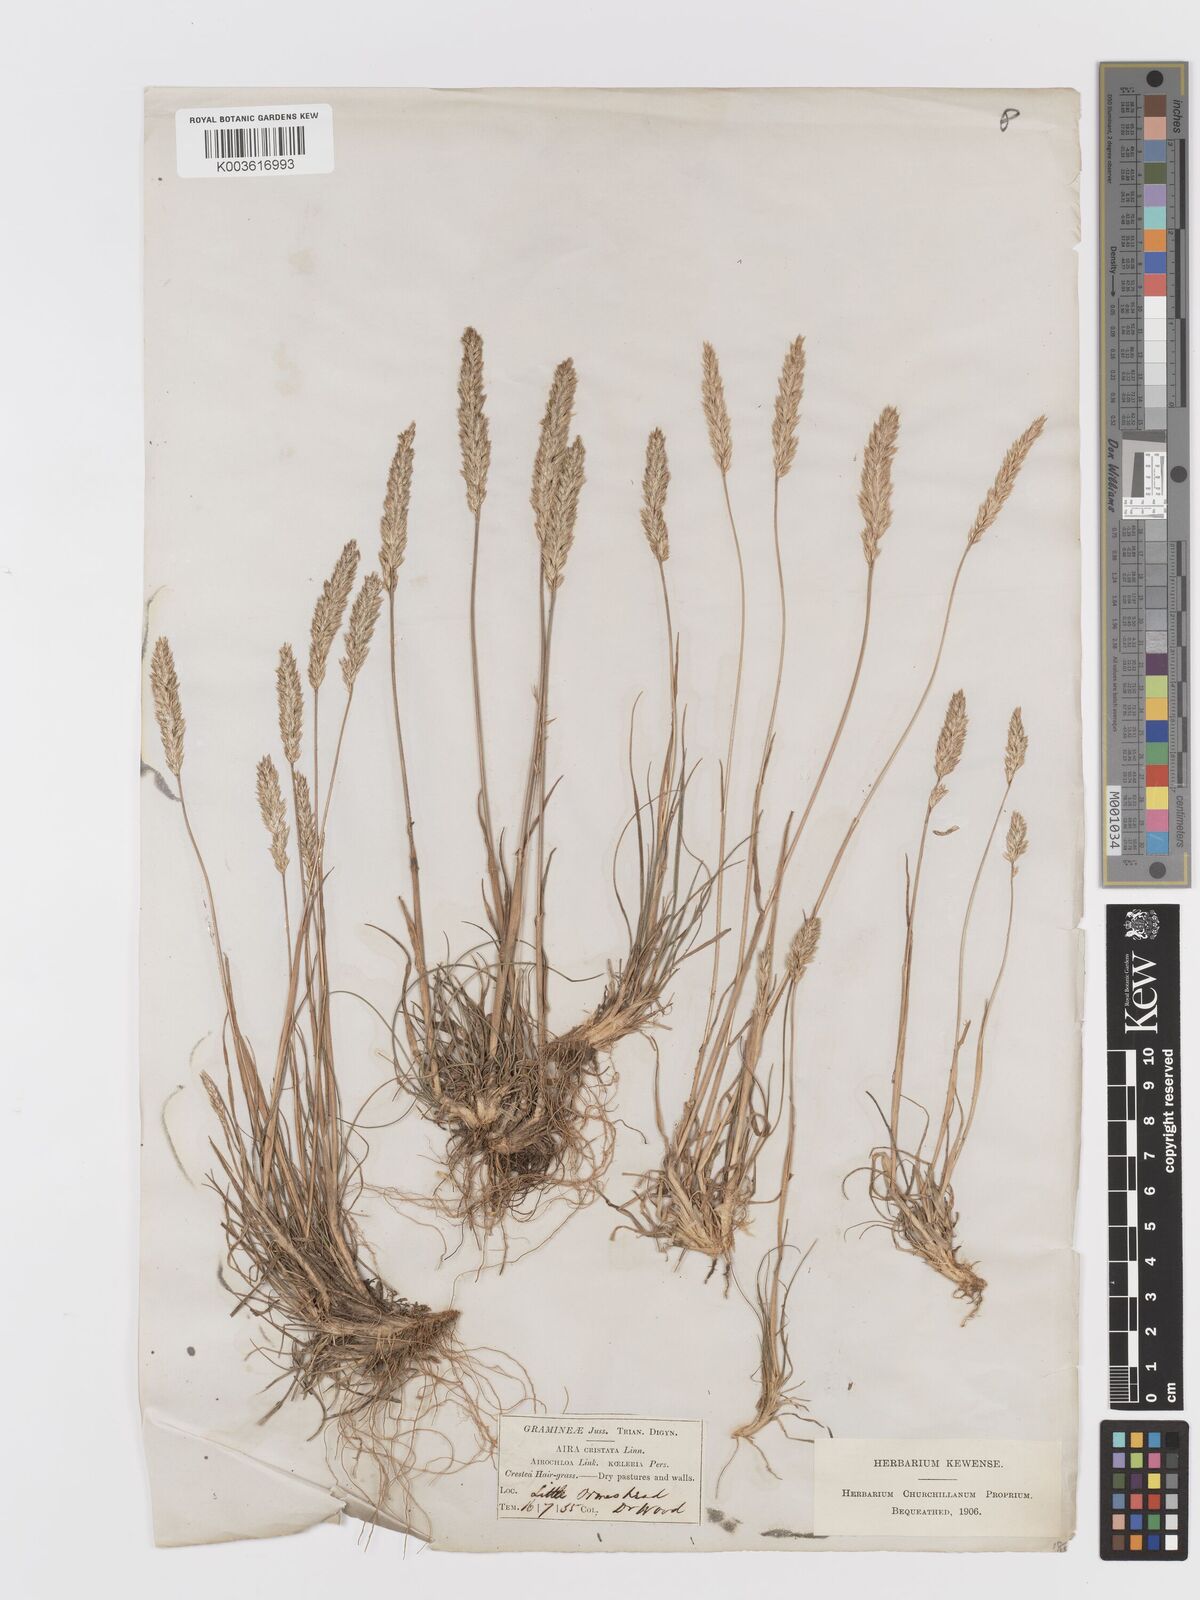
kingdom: Plantae
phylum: Tracheophyta
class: Liliopsida
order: Poales
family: Poaceae
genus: Koeleria
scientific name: Koeleria nitidula
